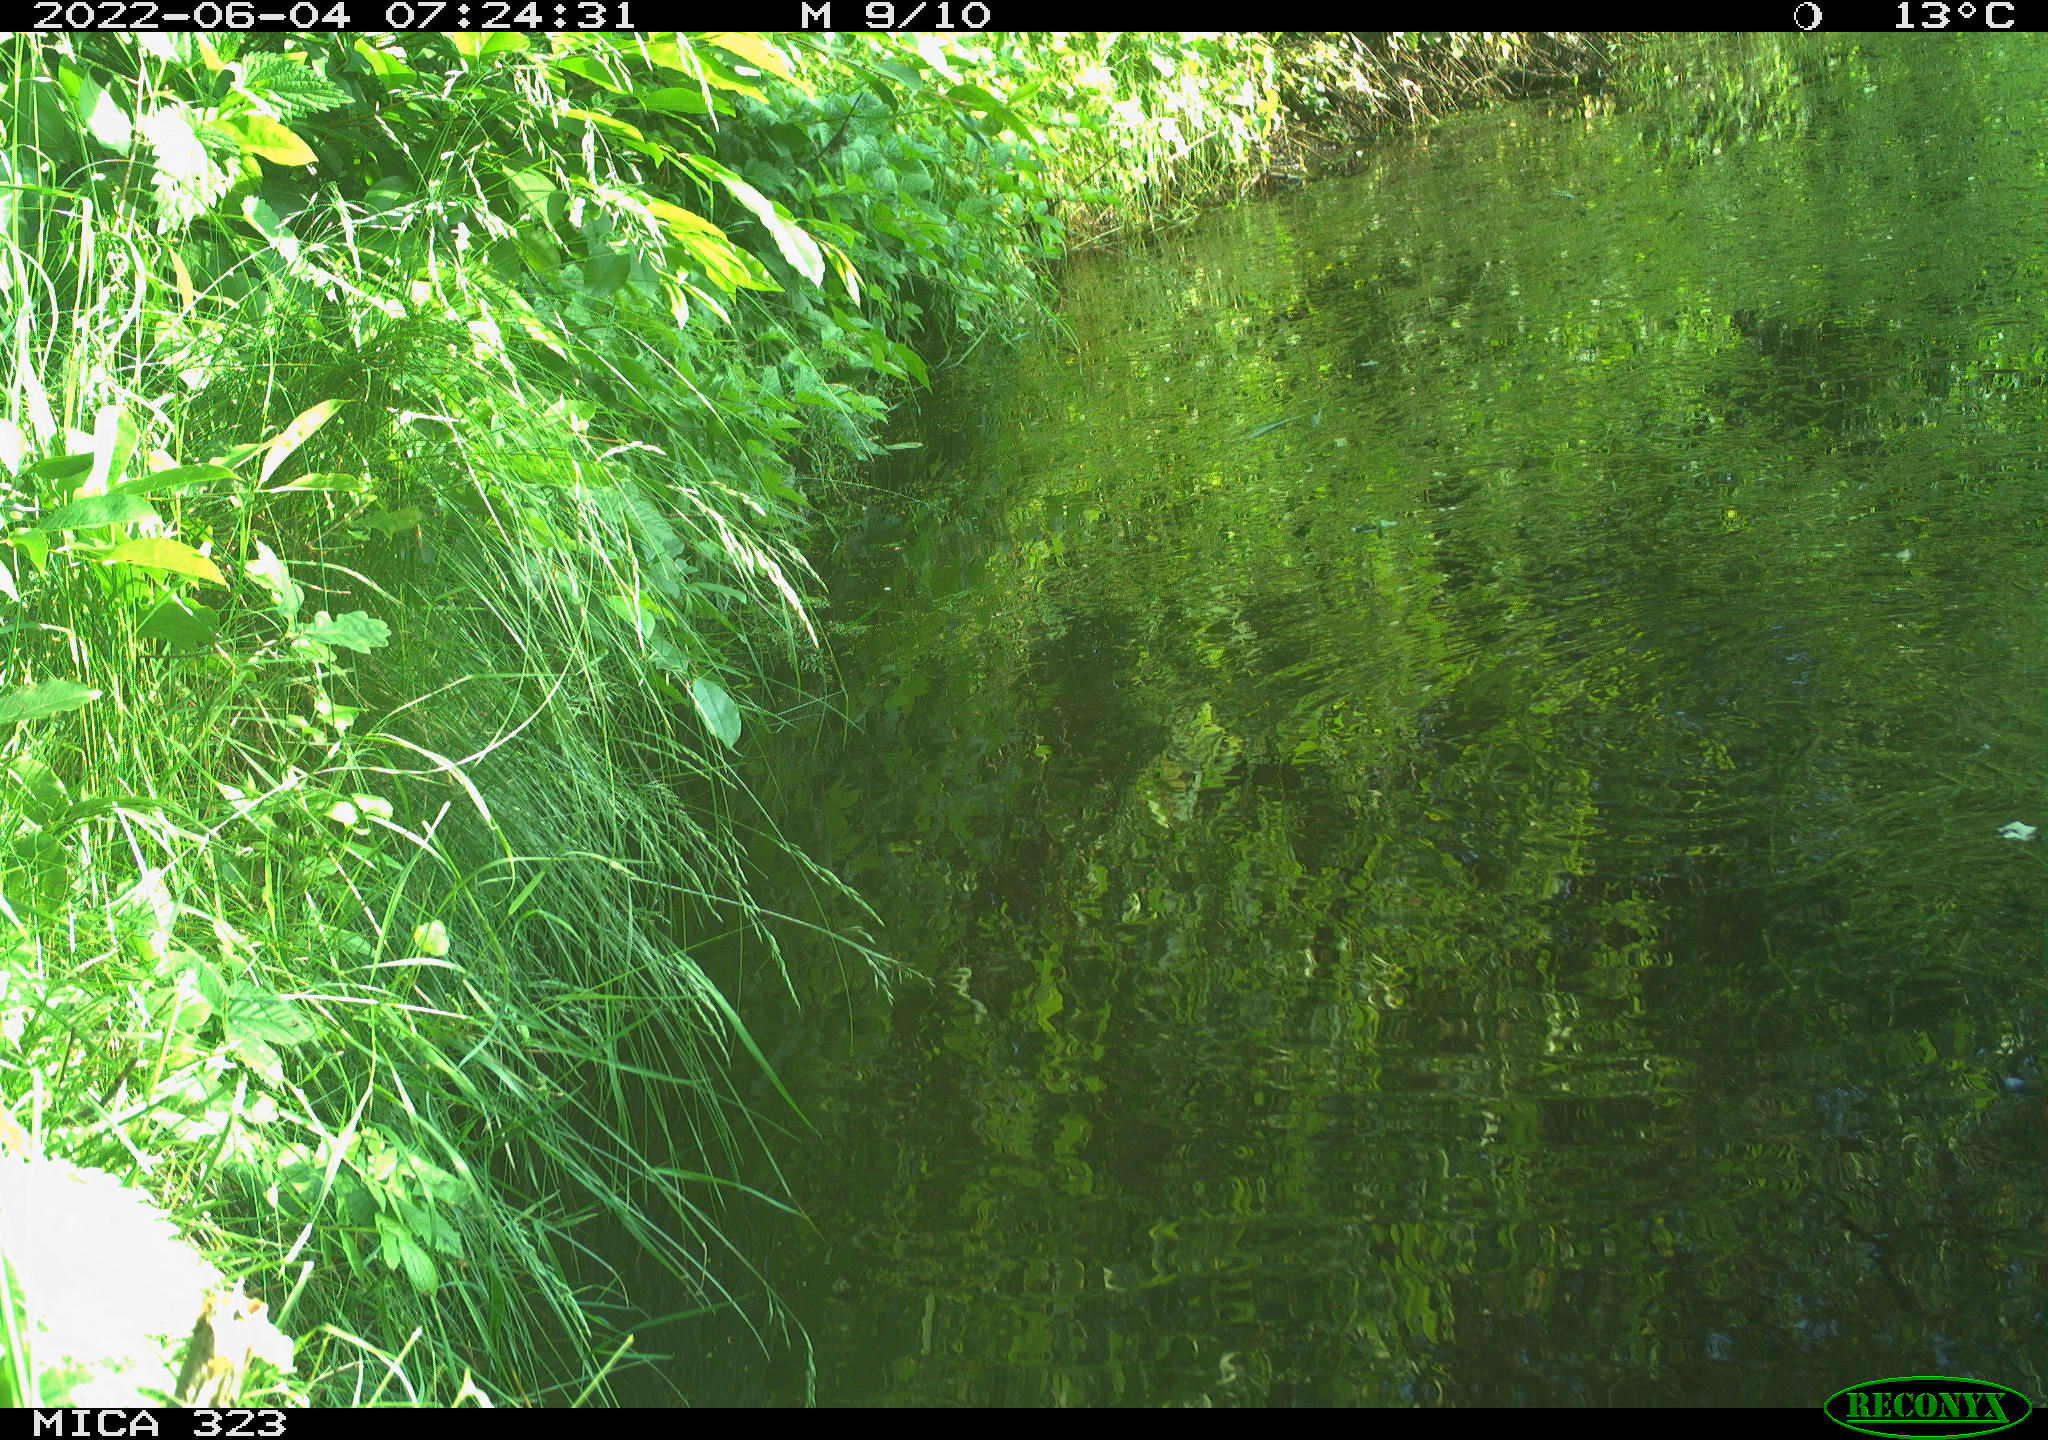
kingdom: Animalia
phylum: Chordata
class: Aves
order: Anseriformes
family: Anatidae
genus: Anas
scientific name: Anas platyrhynchos
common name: Mallard
